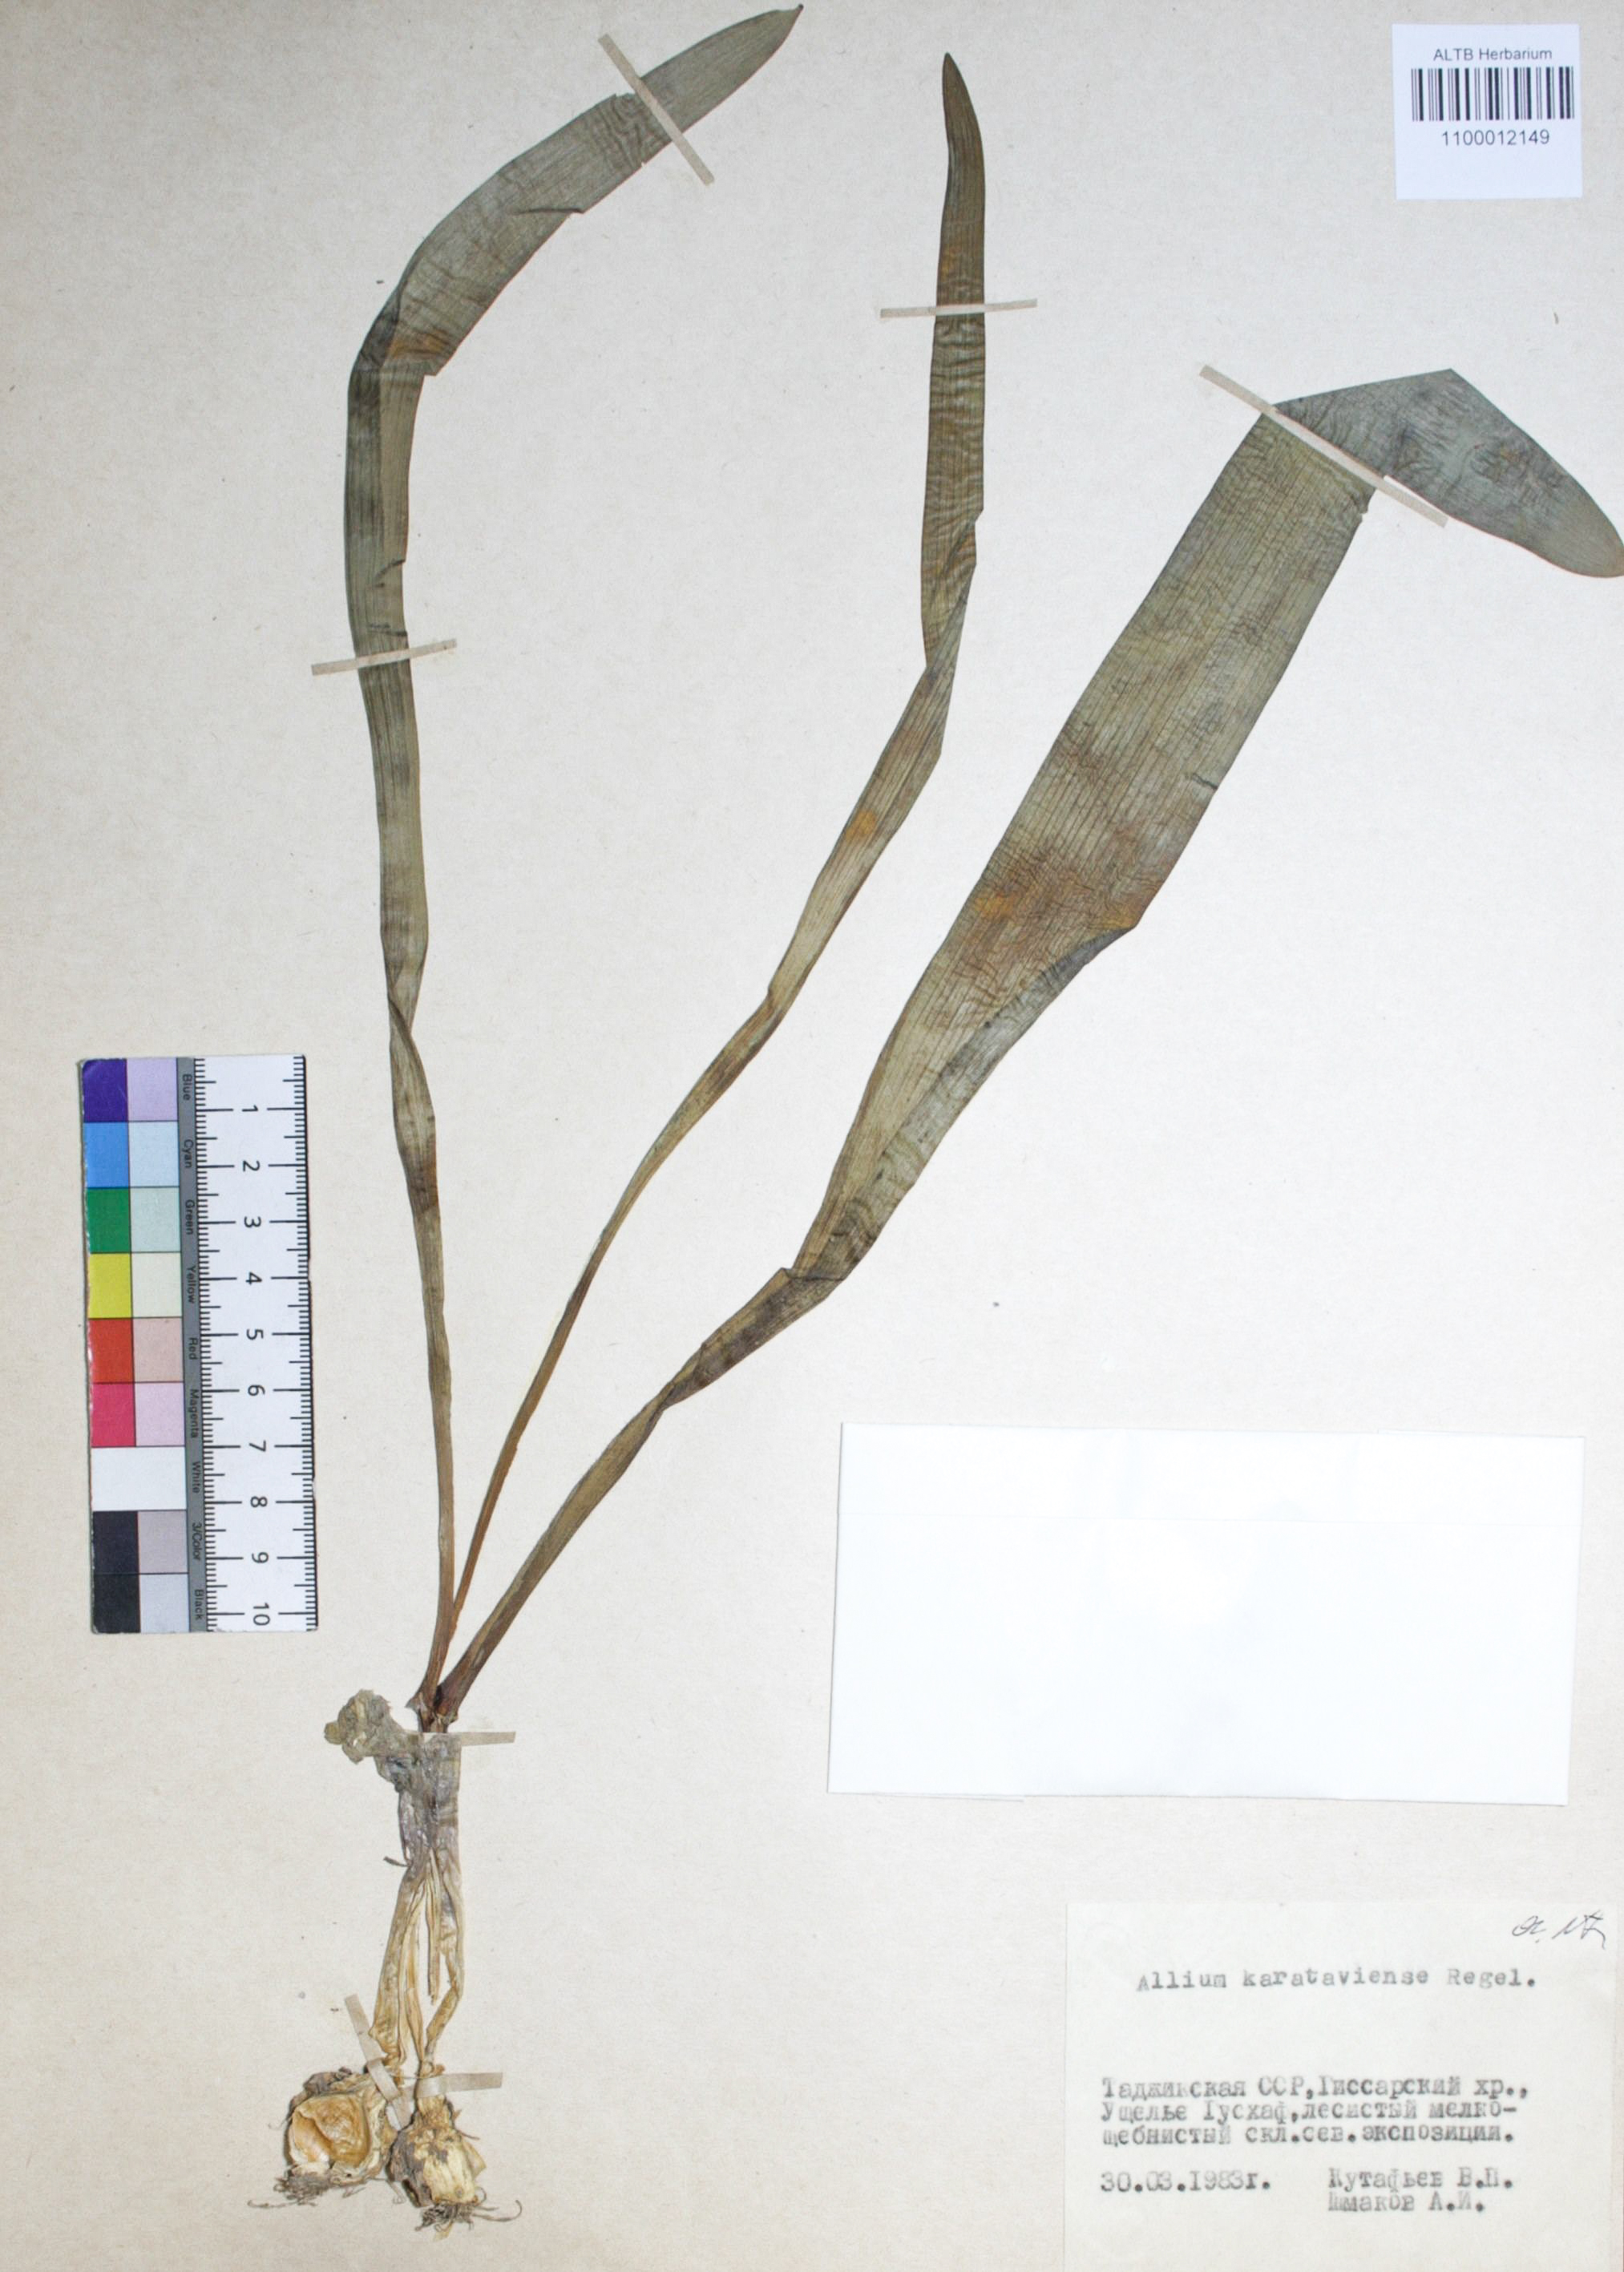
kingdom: Plantae
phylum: Tracheophyta
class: Liliopsida
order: Asparagales
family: Amaryllidaceae
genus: Allium
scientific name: Allium karataviense
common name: Turkestan onion
